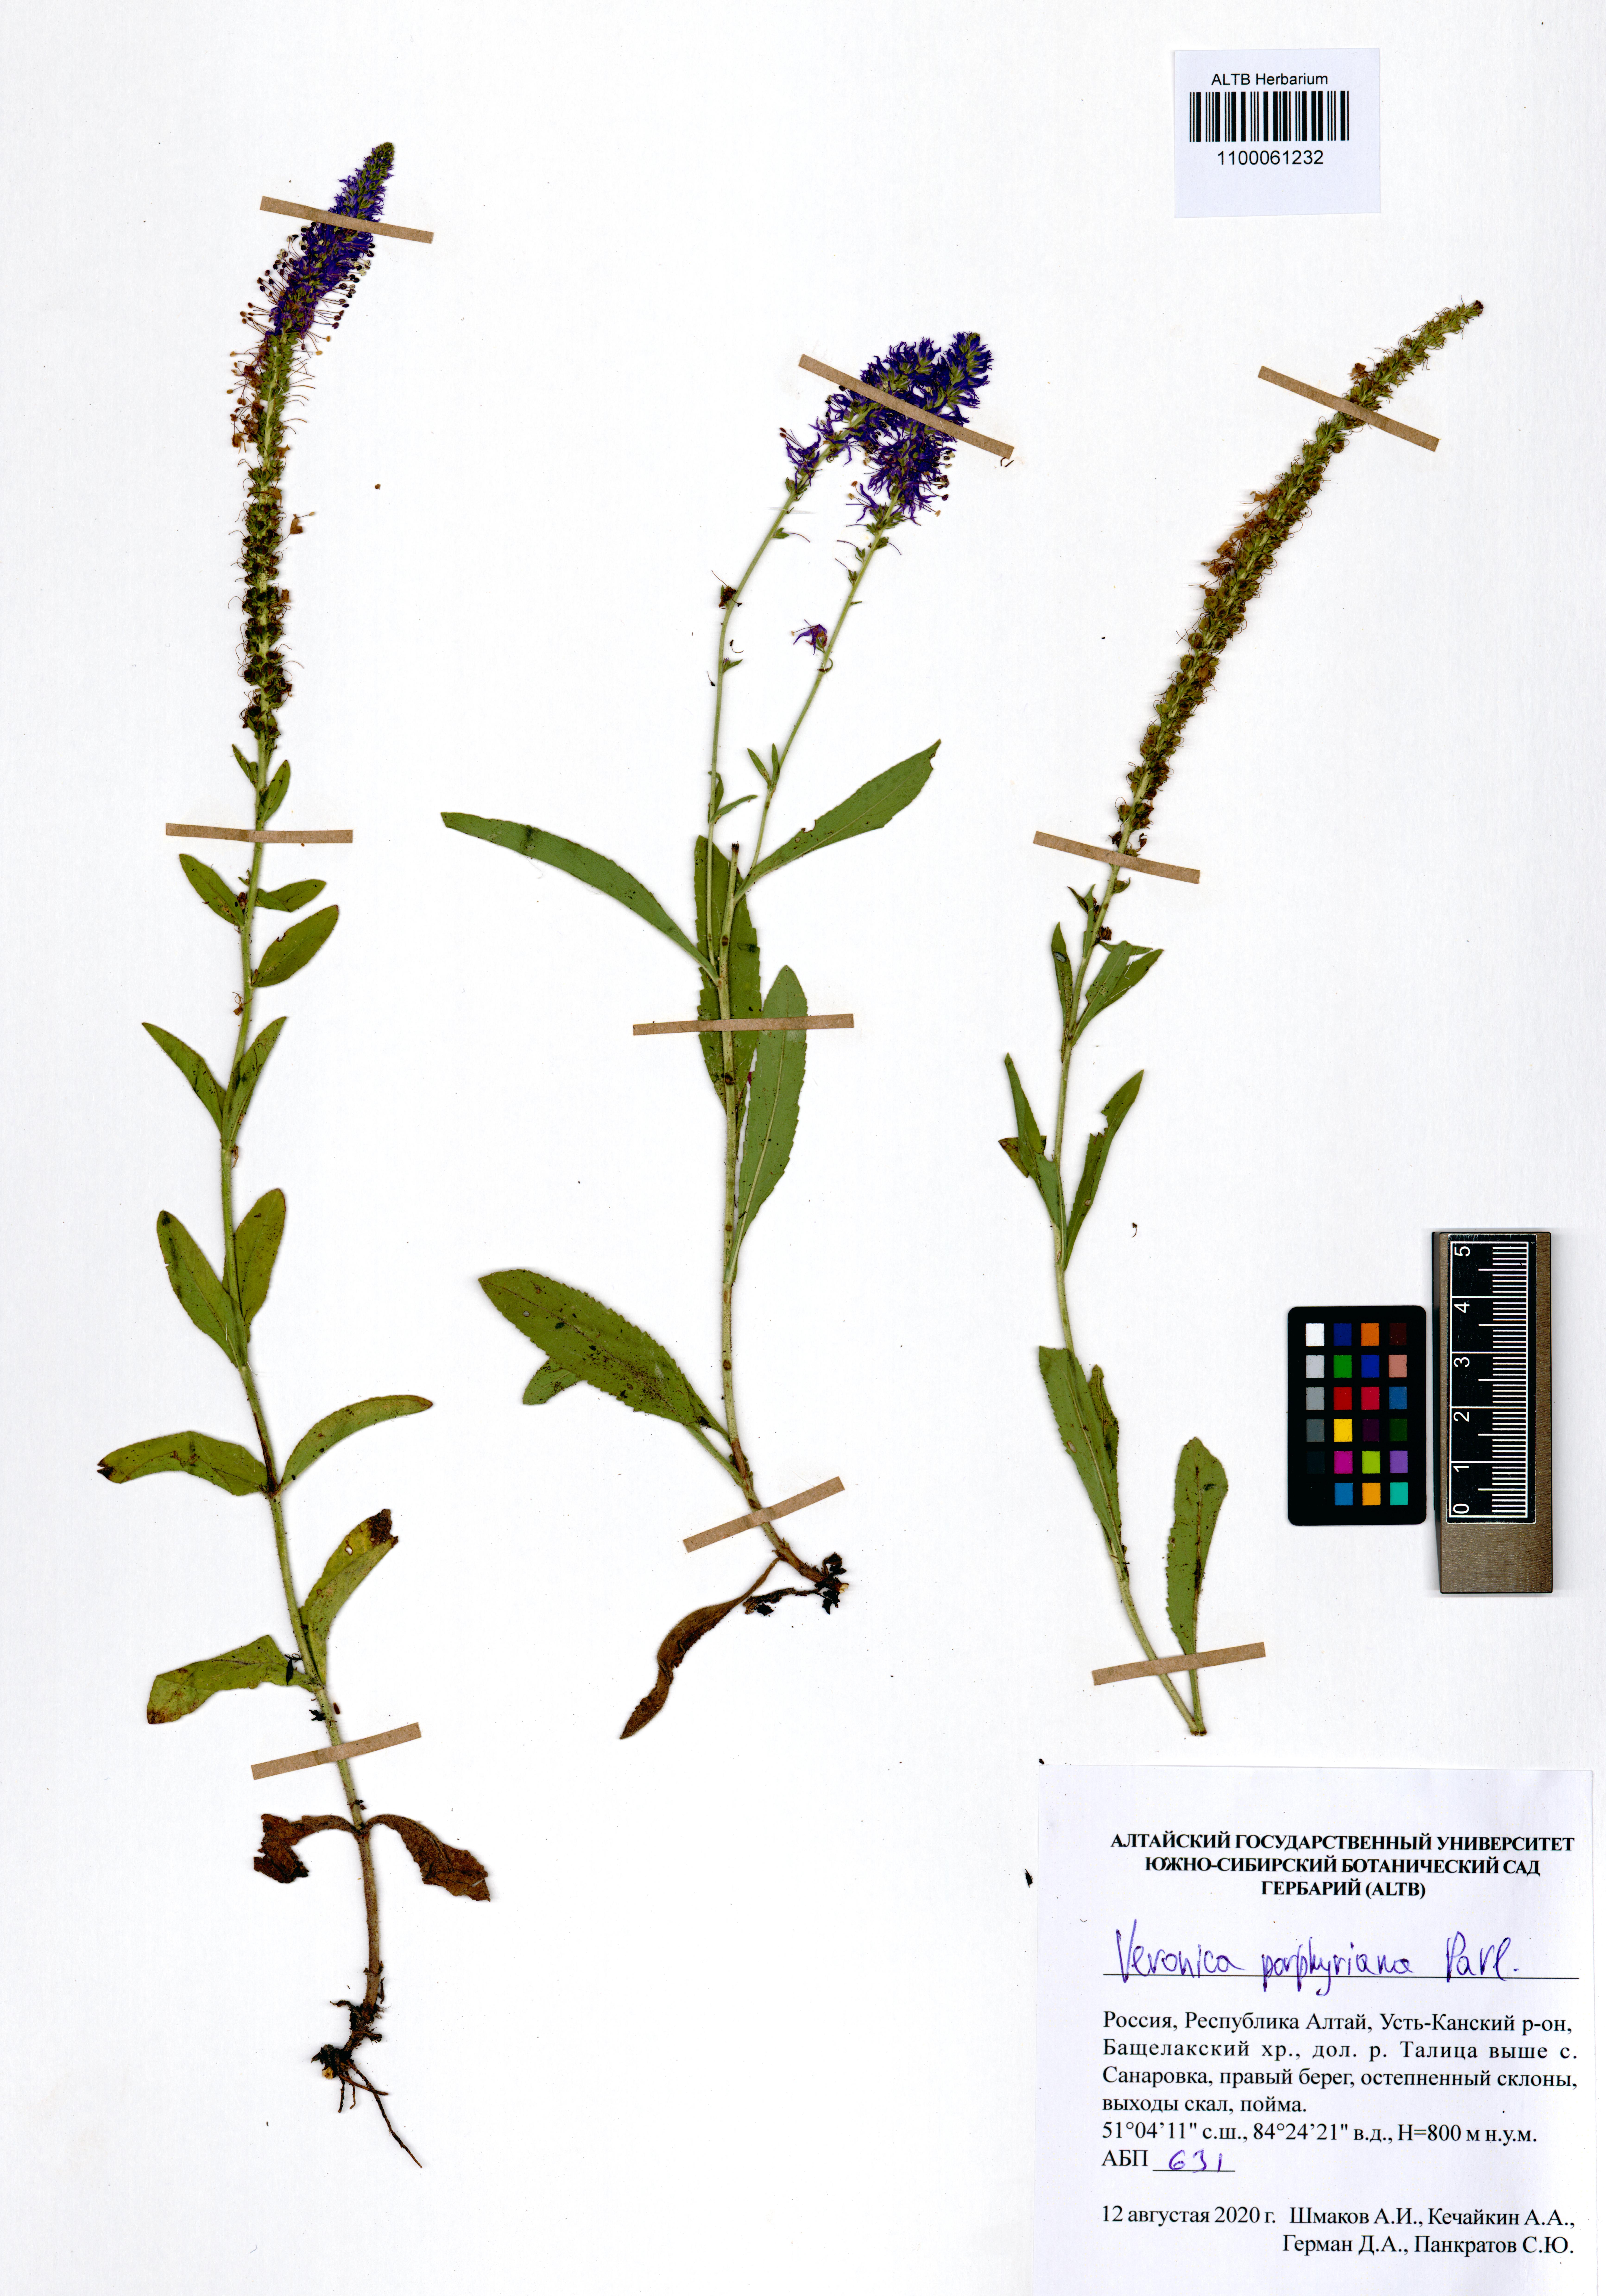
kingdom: Plantae
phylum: Tracheophyta
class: Magnoliopsida
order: Lamiales
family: Plantaginaceae
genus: Veronica
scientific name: Veronica porphyriana
